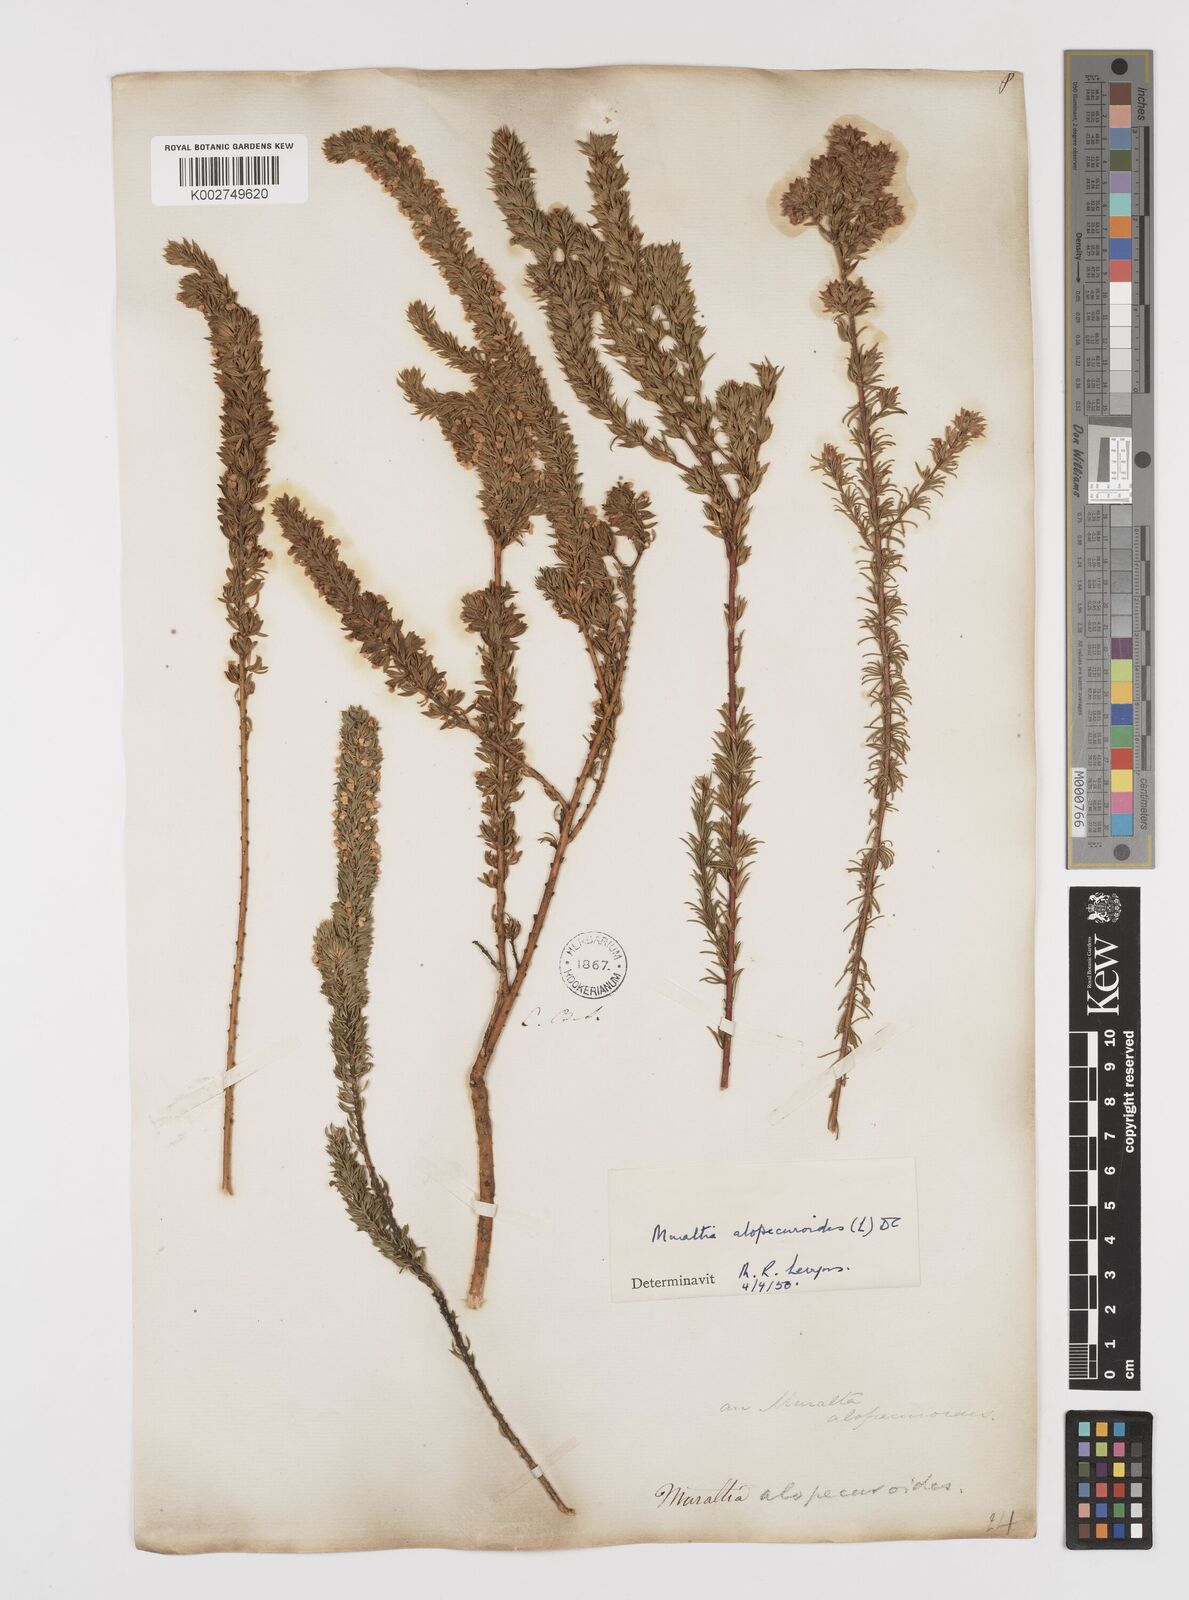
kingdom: Plantae
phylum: Tracheophyta
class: Magnoliopsida
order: Fabales
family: Polygalaceae
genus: Muraltia
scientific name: Muraltia alopecuroides
